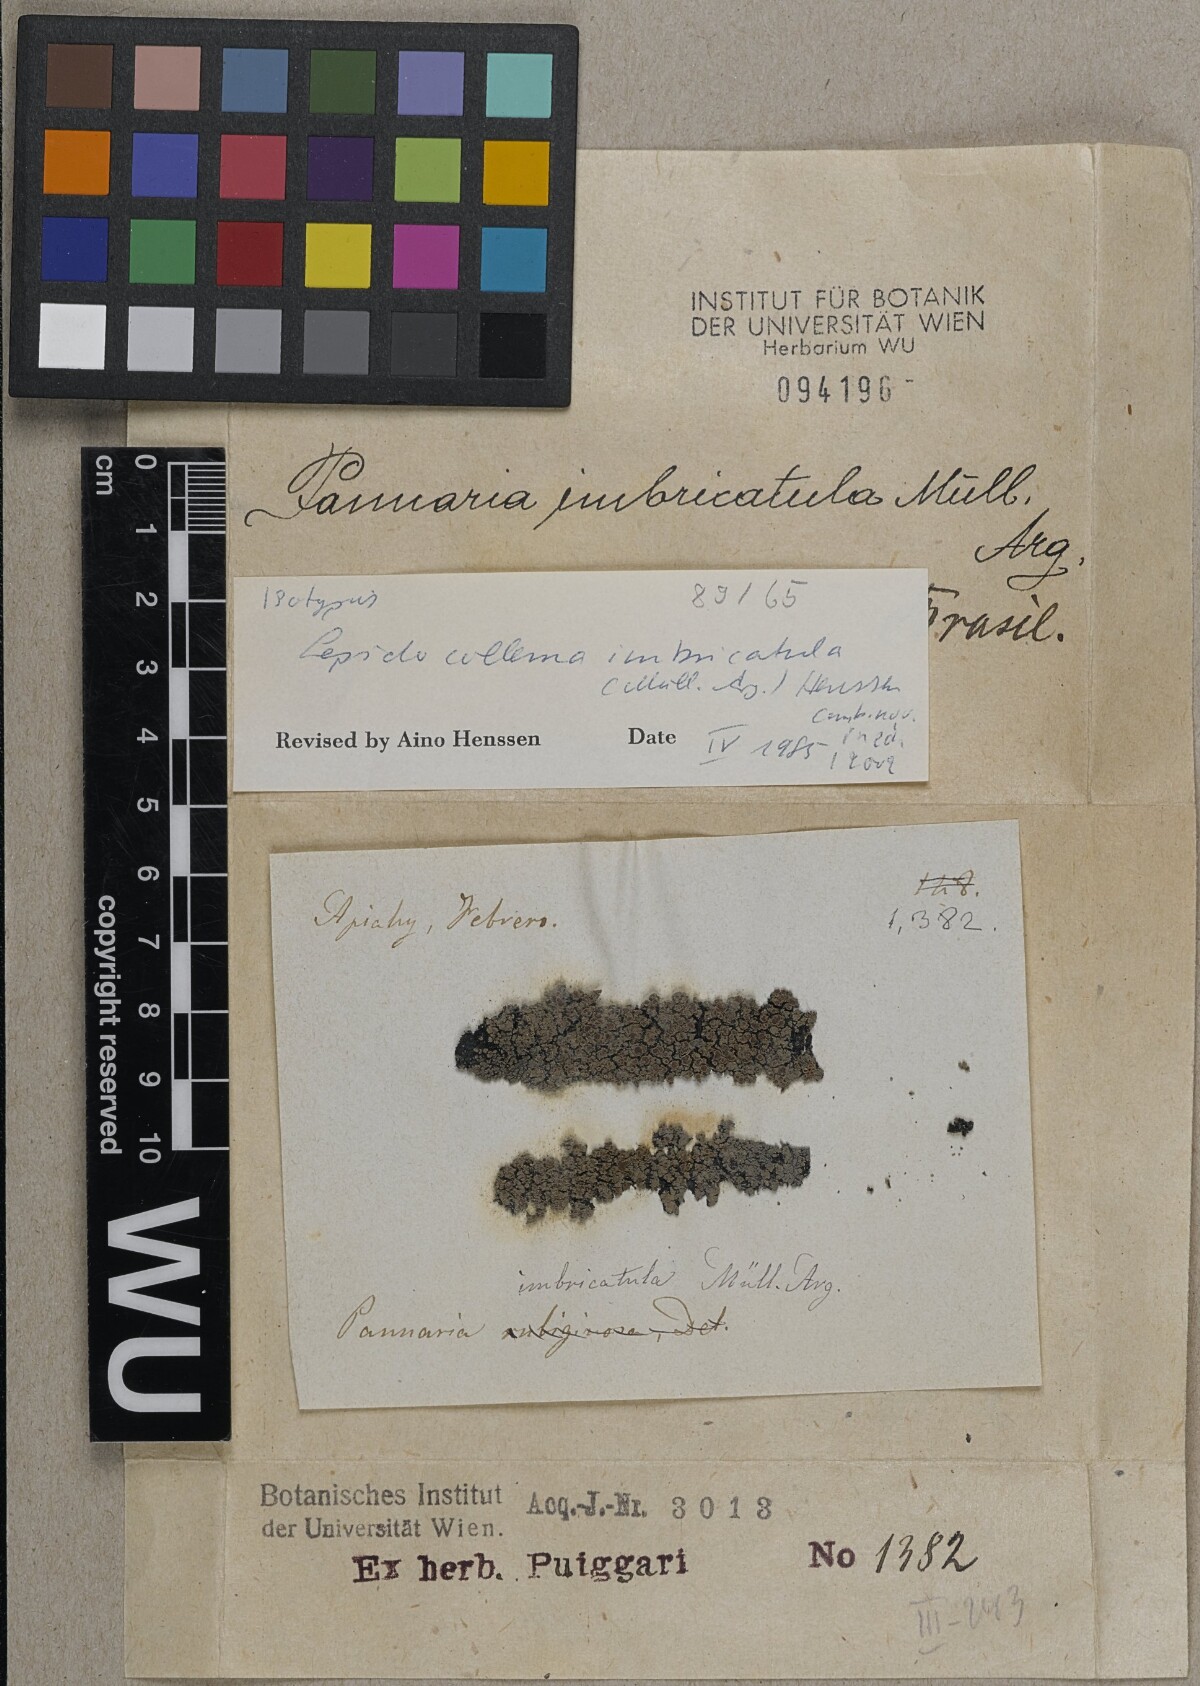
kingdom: Fungi
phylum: Ascomycota
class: Lecanoromycetes
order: Peltigerales
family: Pannariaceae
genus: Lepidocollema
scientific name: Lepidocollema imbricatulum
